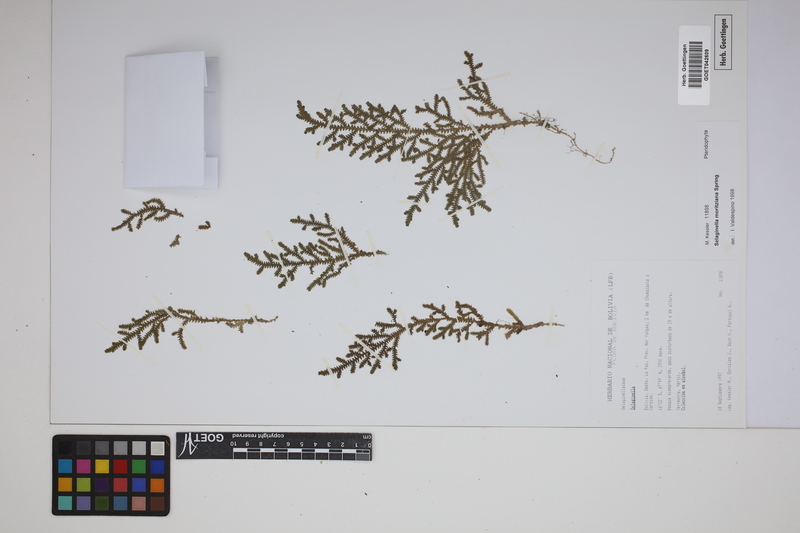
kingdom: Plantae
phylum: Tracheophyta
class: Lycopodiopsida
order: Selaginellales
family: Selaginellaceae
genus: Selaginella
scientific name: Selaginella moritziana
